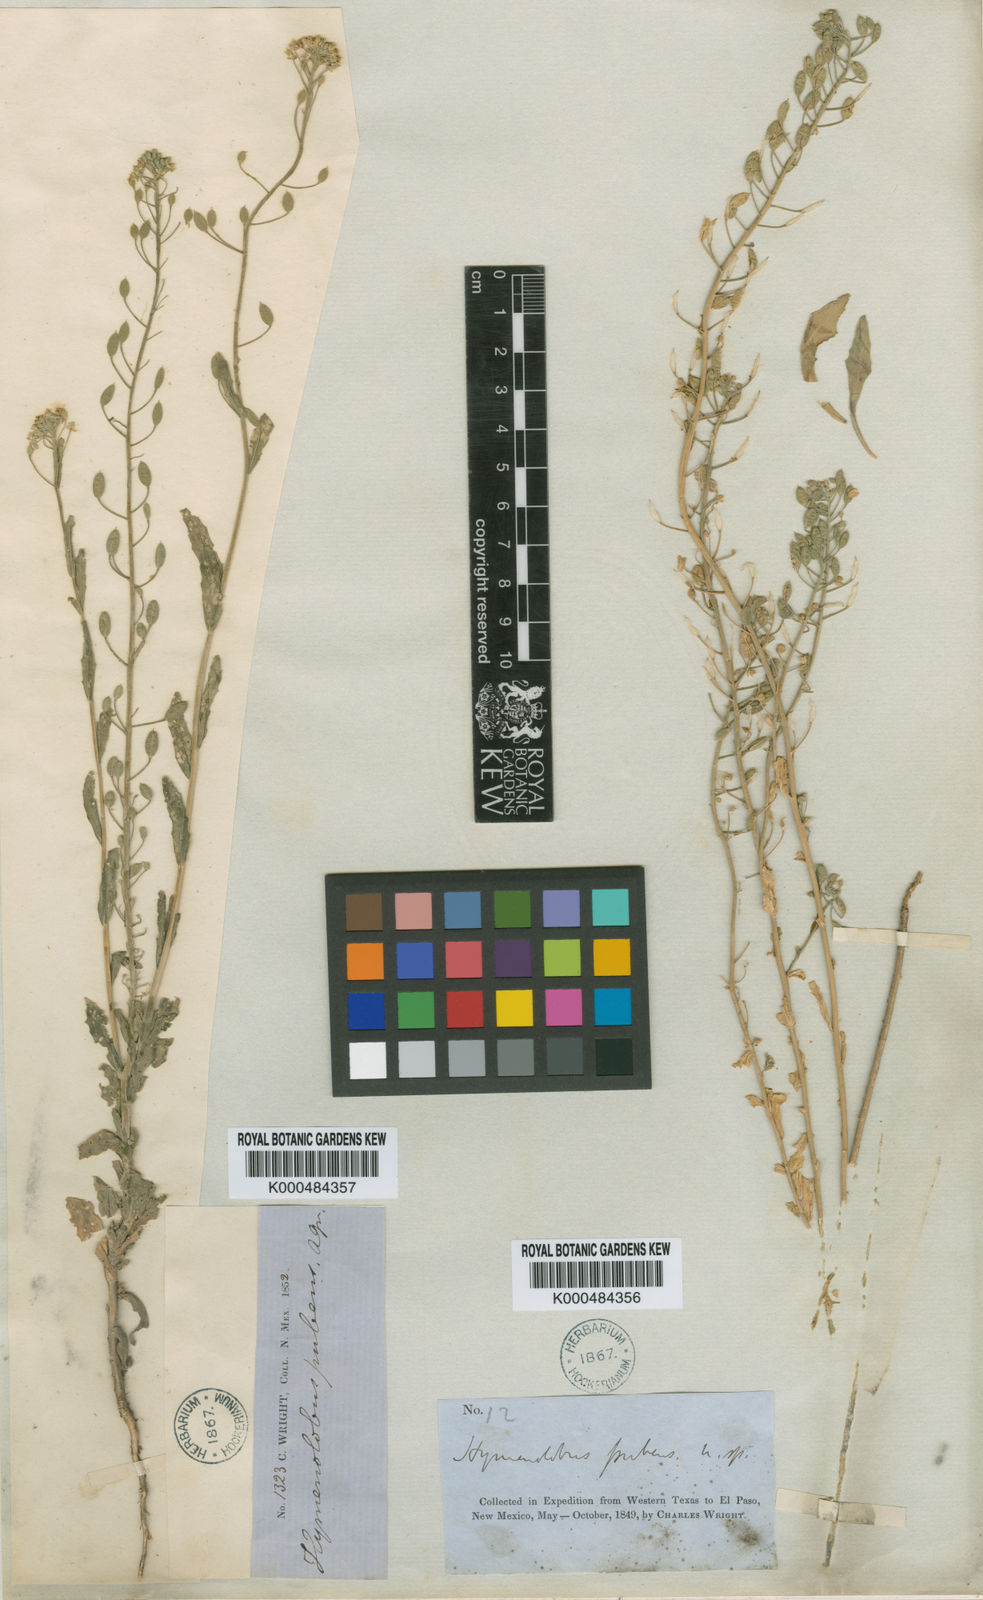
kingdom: Plantae
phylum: Tracheophyta
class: Magnoliopsida
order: Brassicales
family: Brassicaceae
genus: Halimolobos
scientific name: Halimolobos pubens
